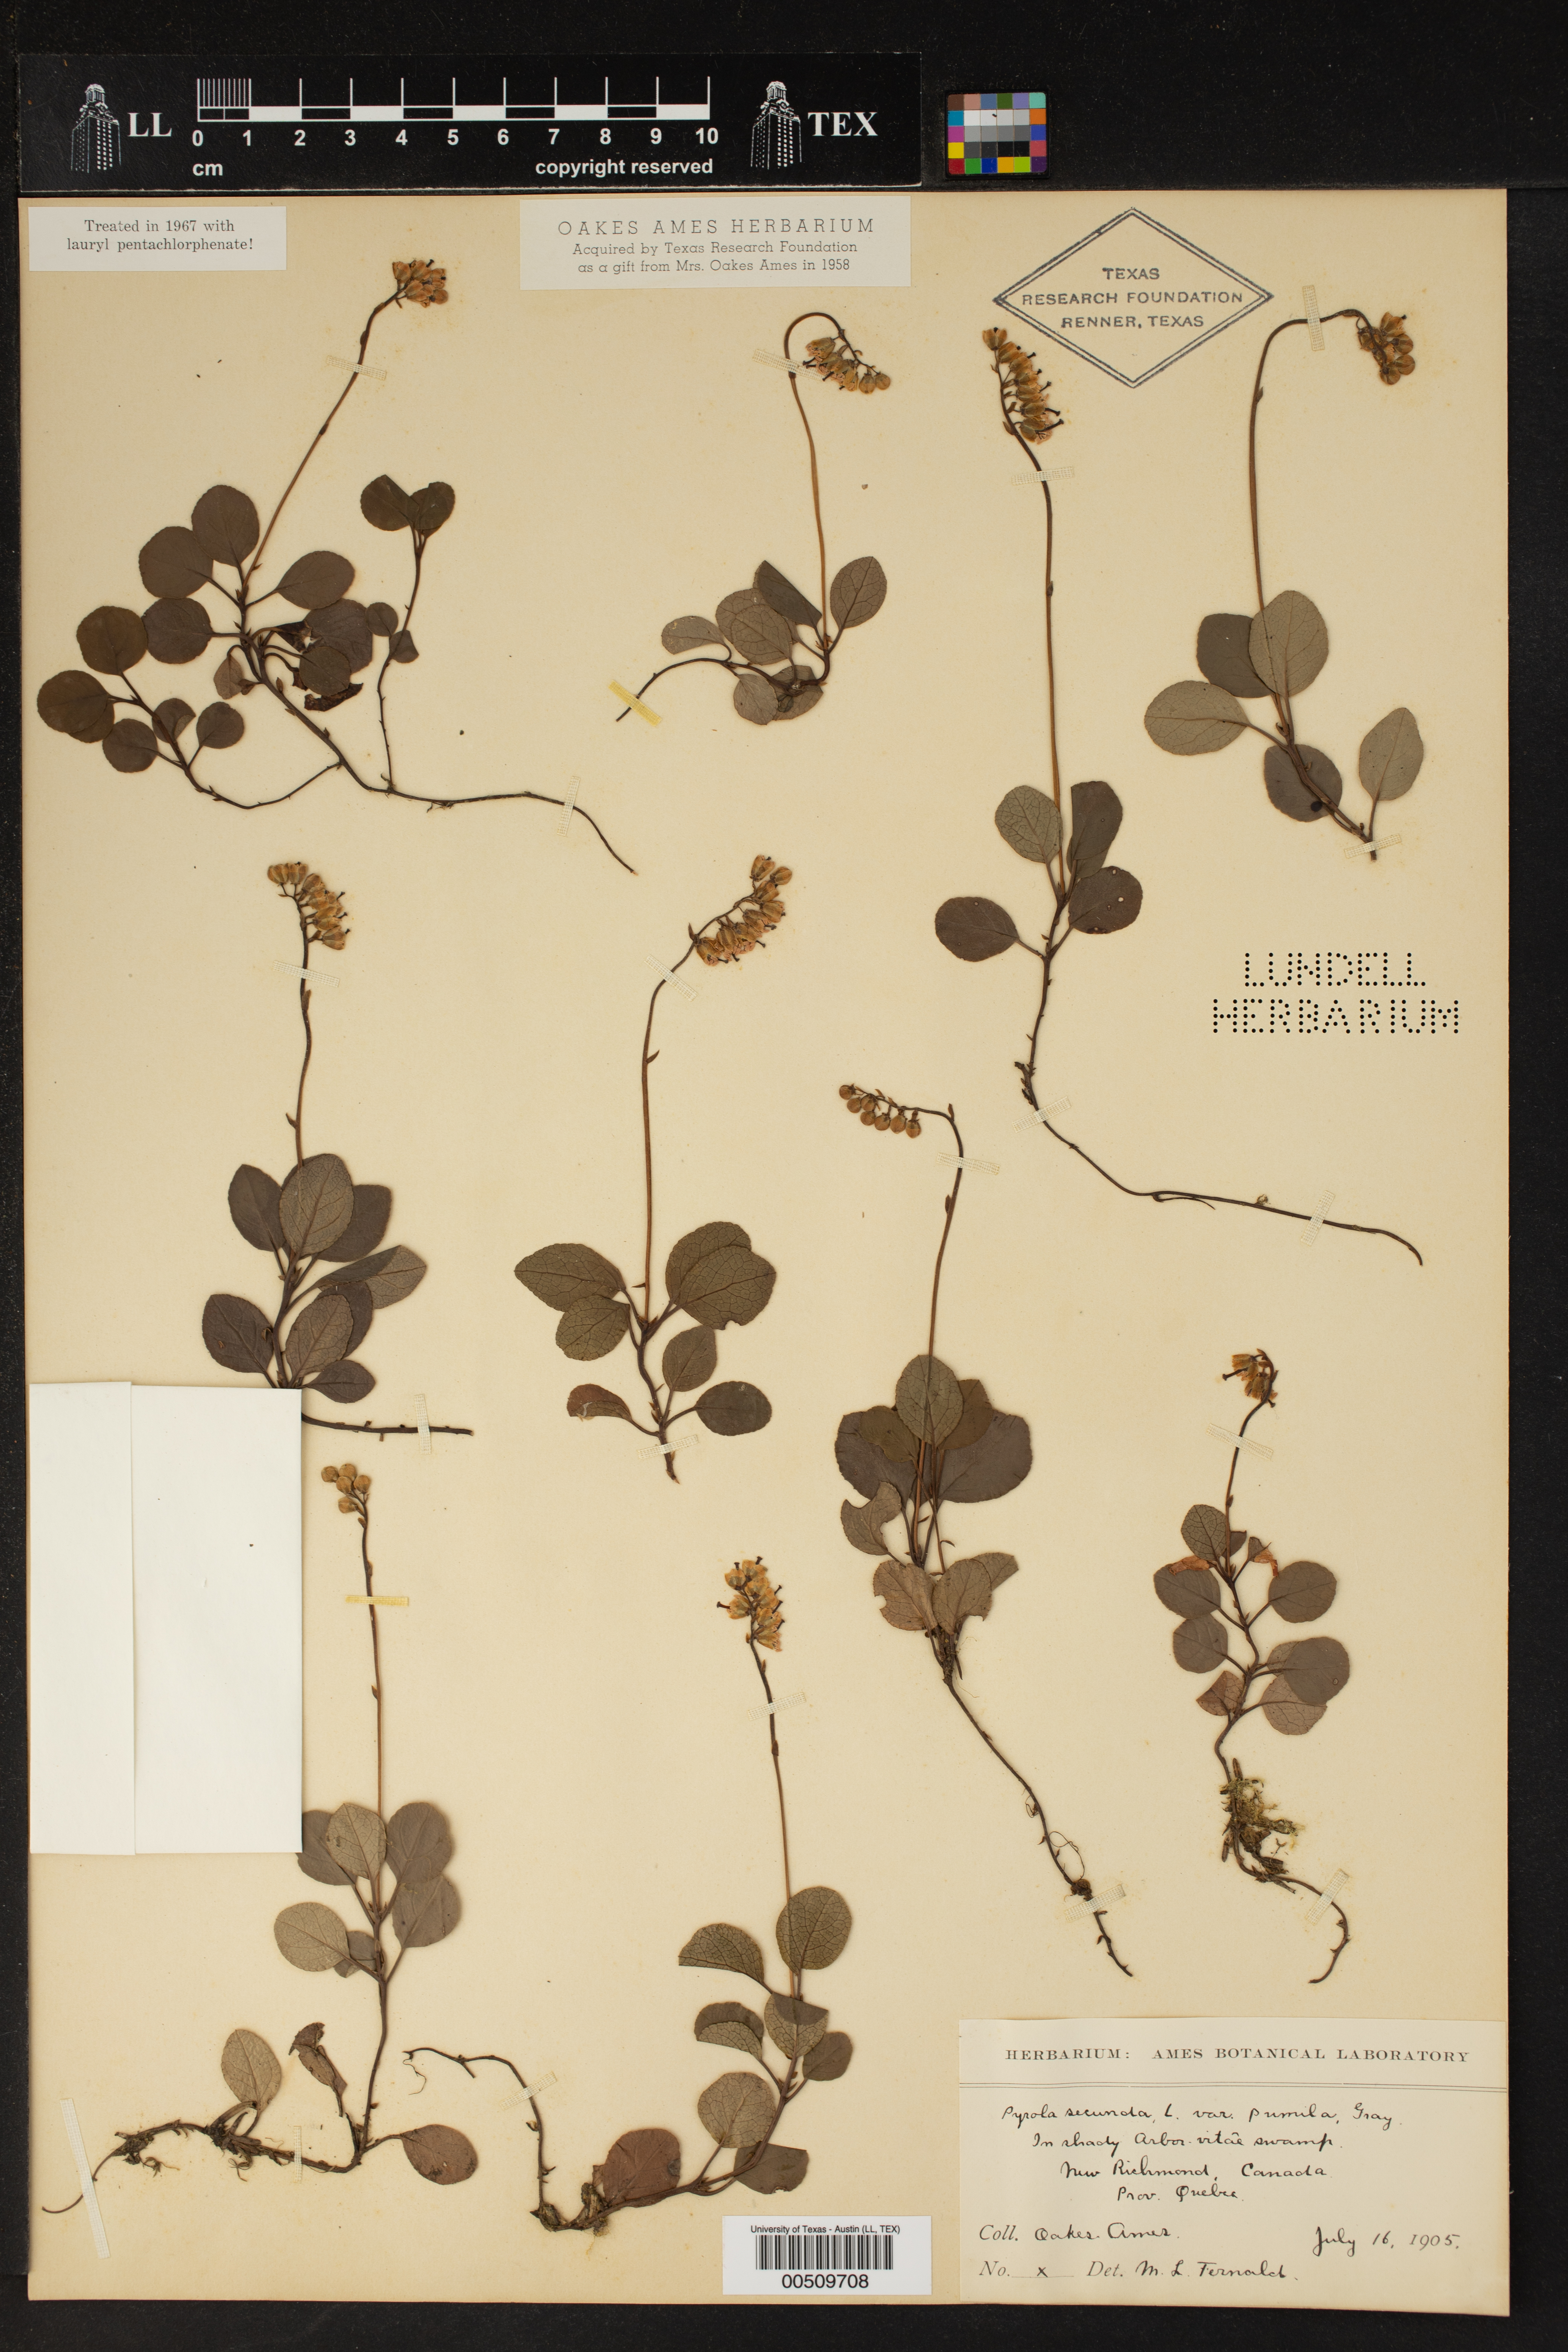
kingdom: Plantae
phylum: Tracheophyta
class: Magnoliopsida
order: Ericales
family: Ericaceae
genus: Orthilia
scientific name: Orthilia secunda
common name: One-sided orthilia
